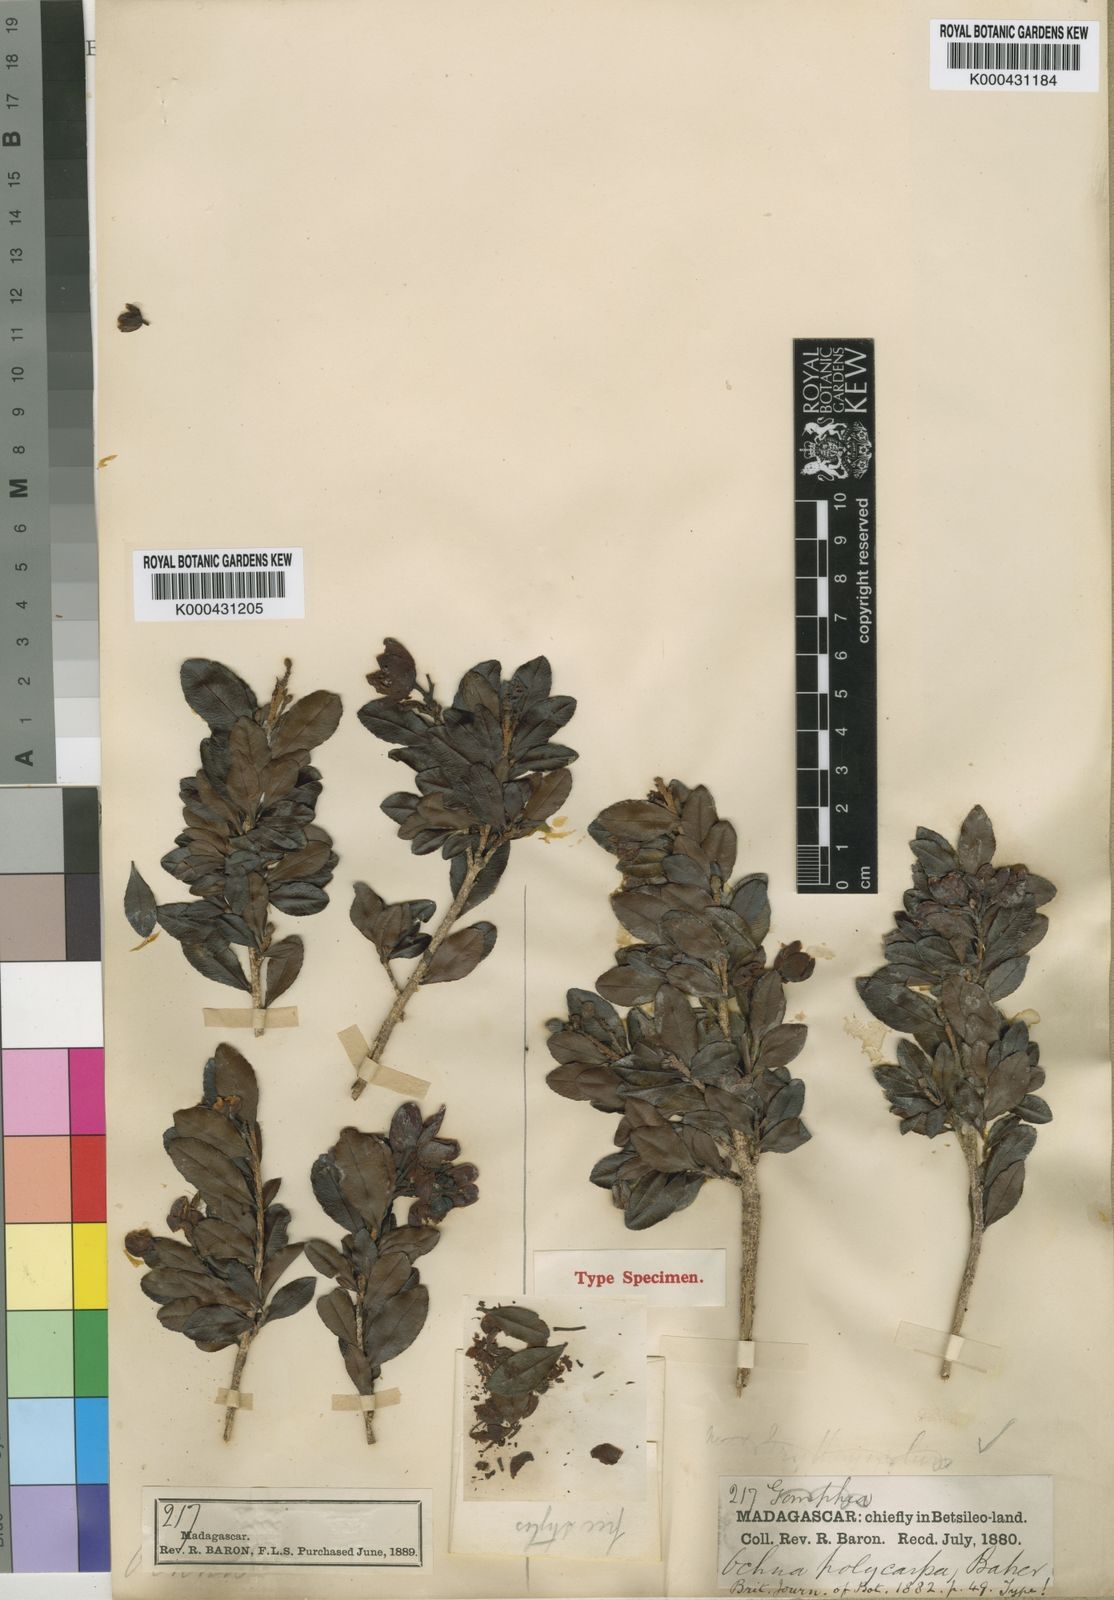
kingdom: Plantae
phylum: Tracheophyta
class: Magnoliopsida
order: Malpighiales
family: Ochnaceae
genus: Ochna
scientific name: Ochna polycarpa
